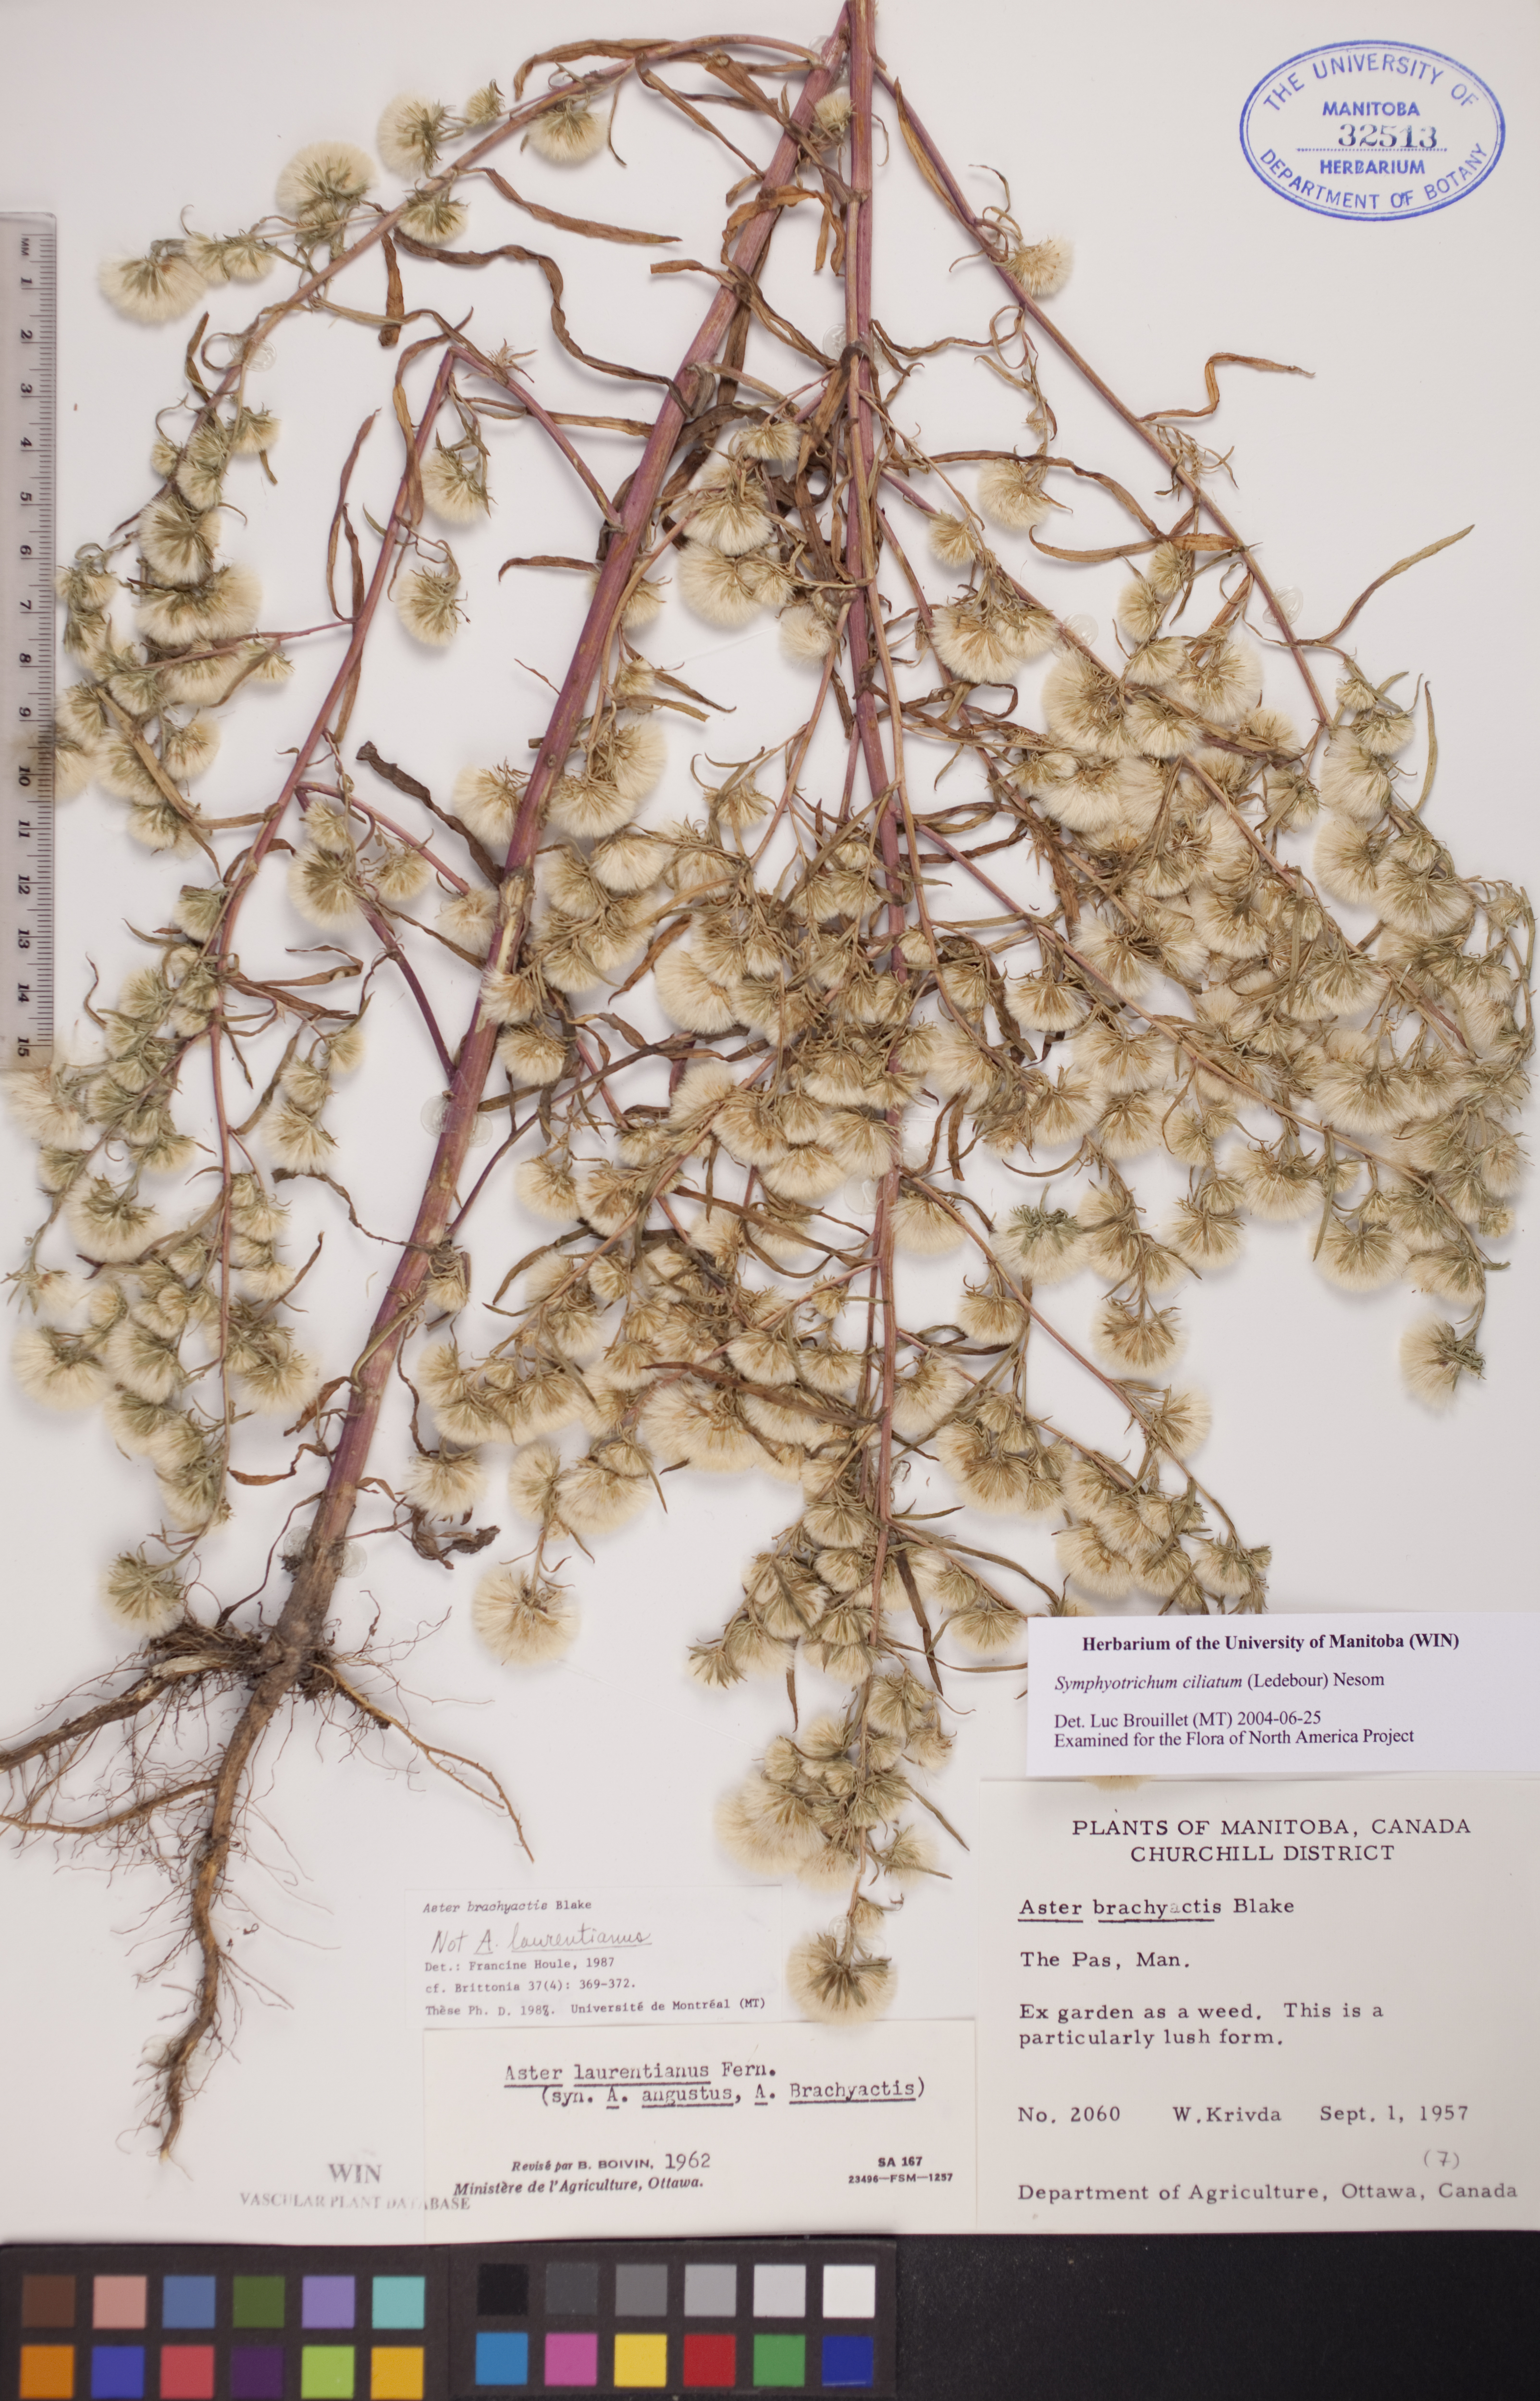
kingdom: Plantae
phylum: Tracheophyta
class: Magnoliopsida
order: Asterales
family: Asteraceae
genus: Symphyotrichum
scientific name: Symphyotrichum ciliatum
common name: Rayless annual aster
